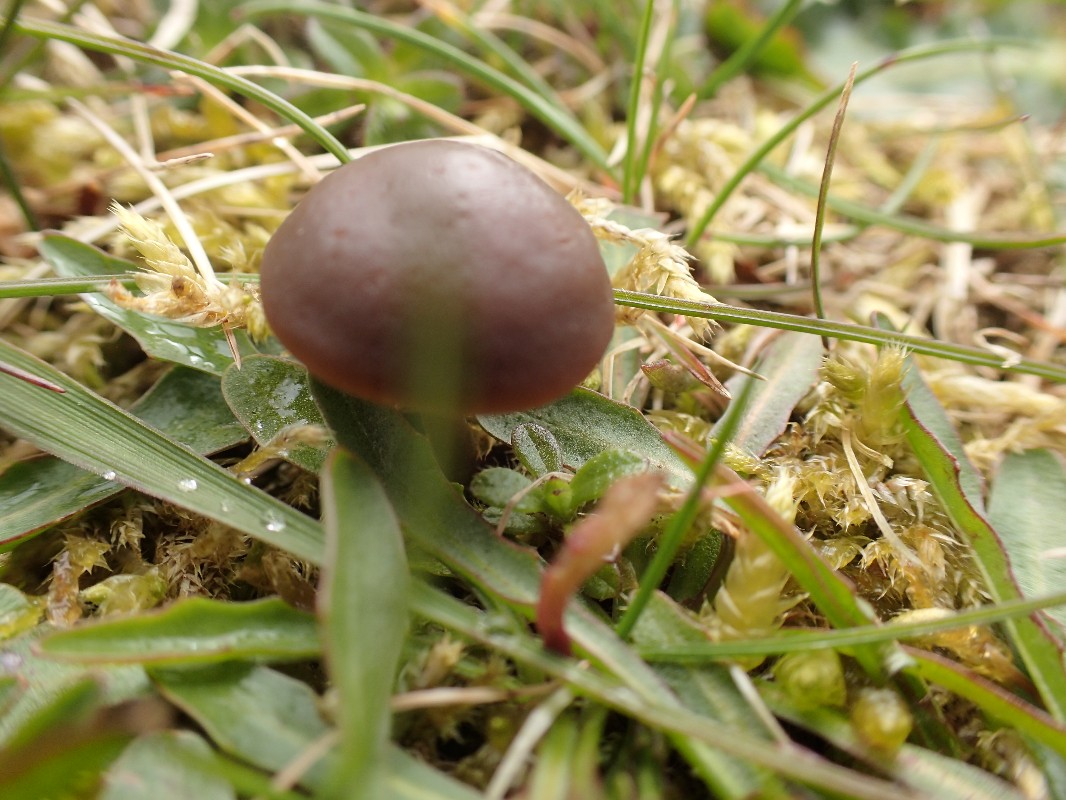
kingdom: Fungi
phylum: Basidiomycota
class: Agaricomycetes
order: Agaricales
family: Bolbitiaceae
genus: Panaeolus
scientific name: Panaeolus fimicola
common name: tidlig glanshat
